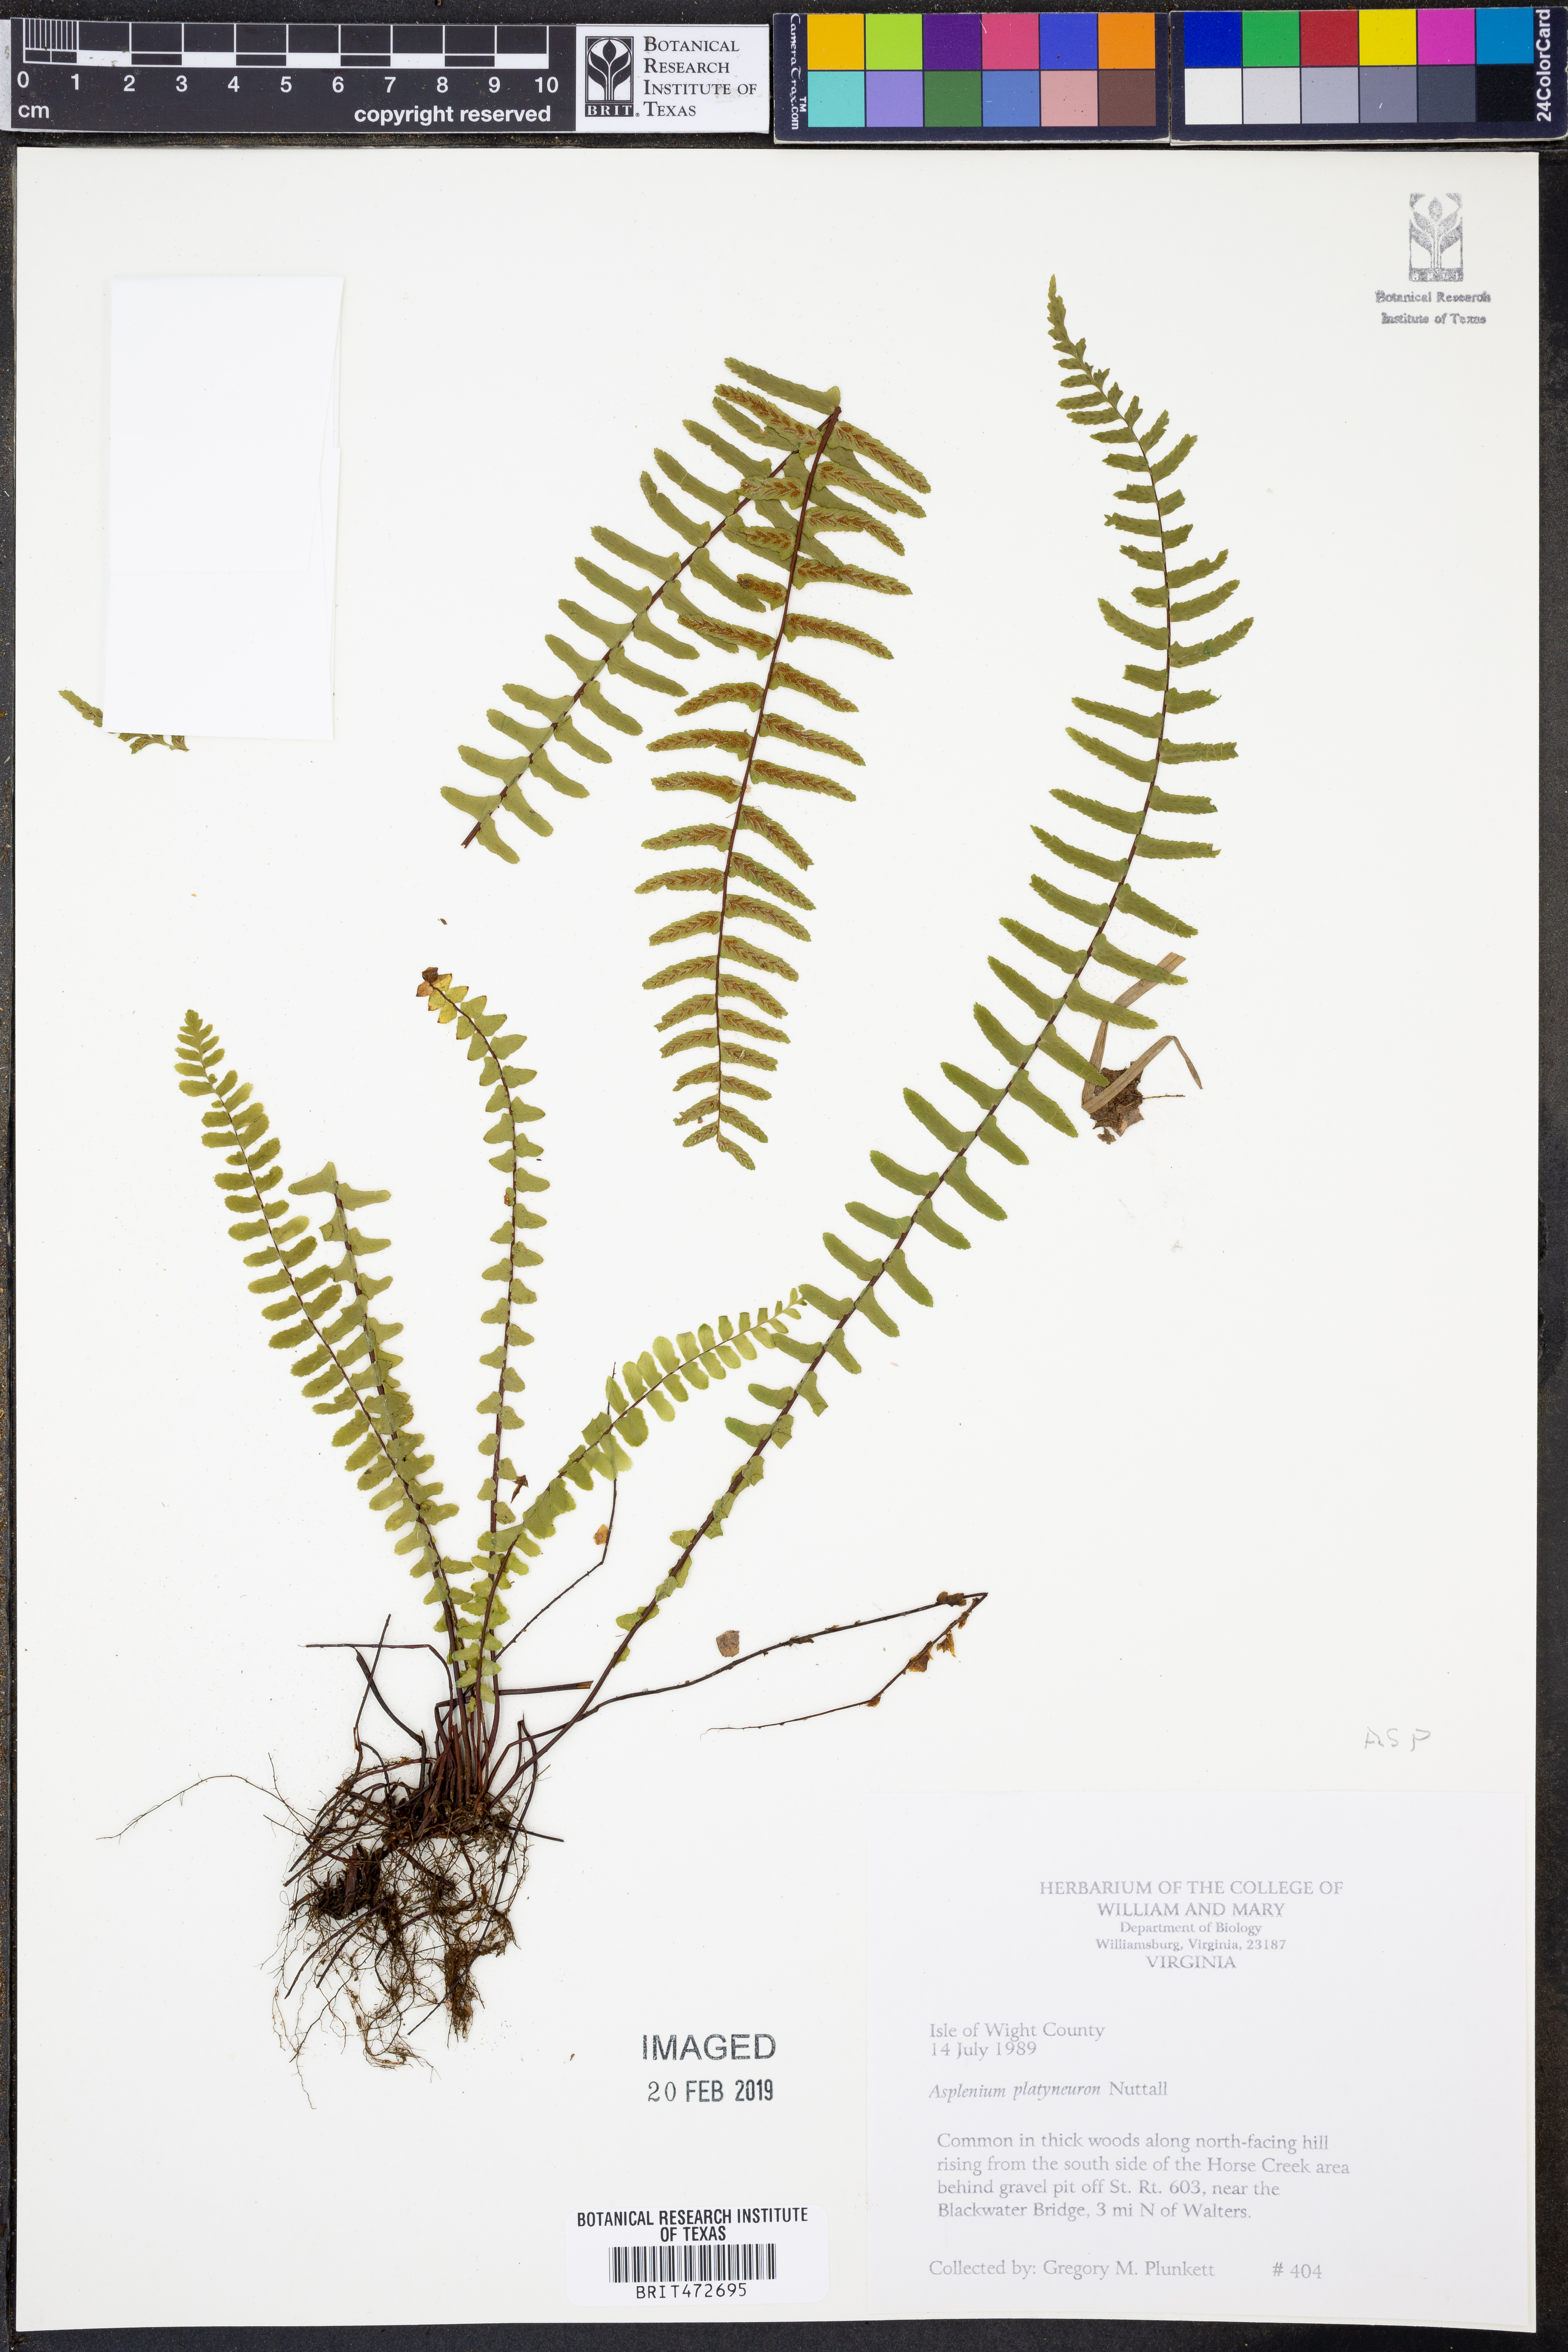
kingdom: Plantae
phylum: Tracheophyta
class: Polypodiopsida
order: Polypodiales
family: Aspleniaceae
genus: Asplenium
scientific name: Asplenium platyneuron
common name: Ebony spleenwort
